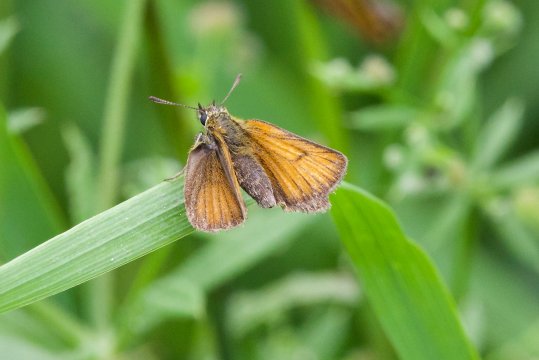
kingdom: Animalia
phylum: Arthropoda
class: Insecta
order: Lepidoptera
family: Hesperiidae
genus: Thymelicus
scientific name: Thymelicus lineola
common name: European Skipper
